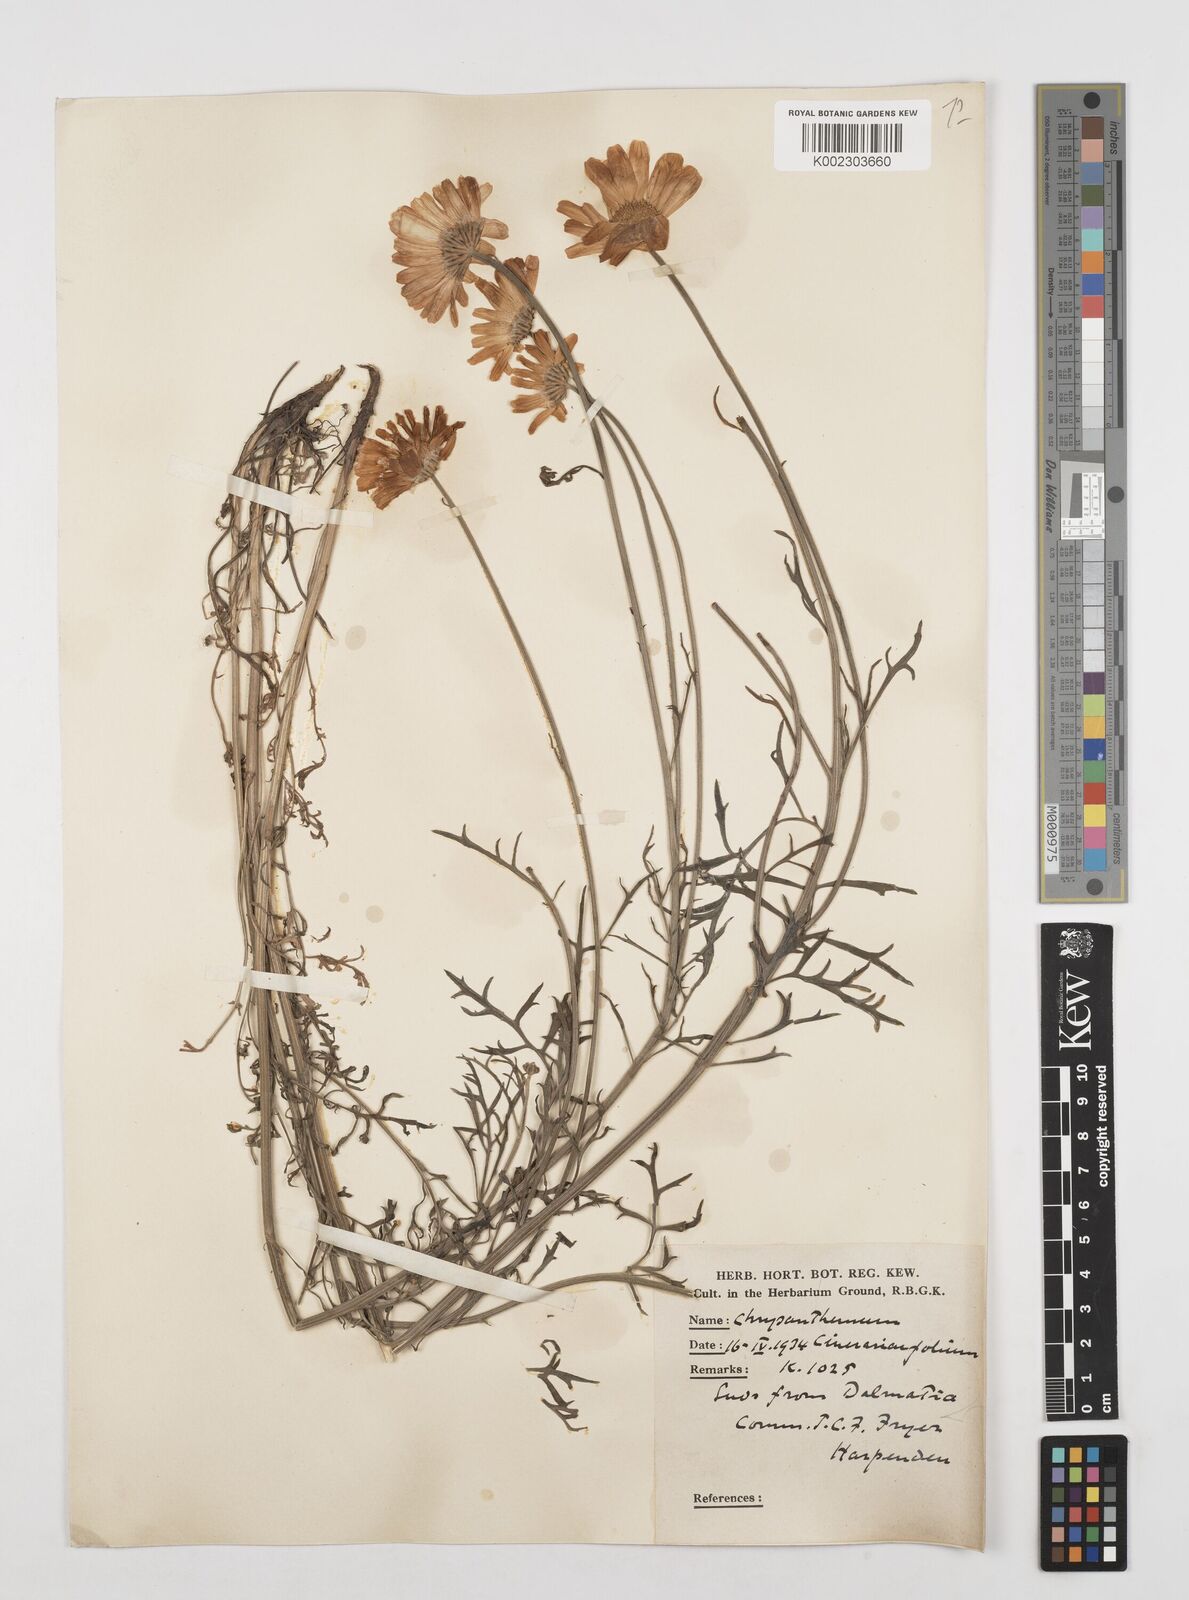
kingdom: Plantae
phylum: Tracheophyta
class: Magnoliopsida
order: Asterales
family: Asteraceae
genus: Tanacetum
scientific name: Tanacetum cinerariifolium
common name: Dalmatian pyrethrum
